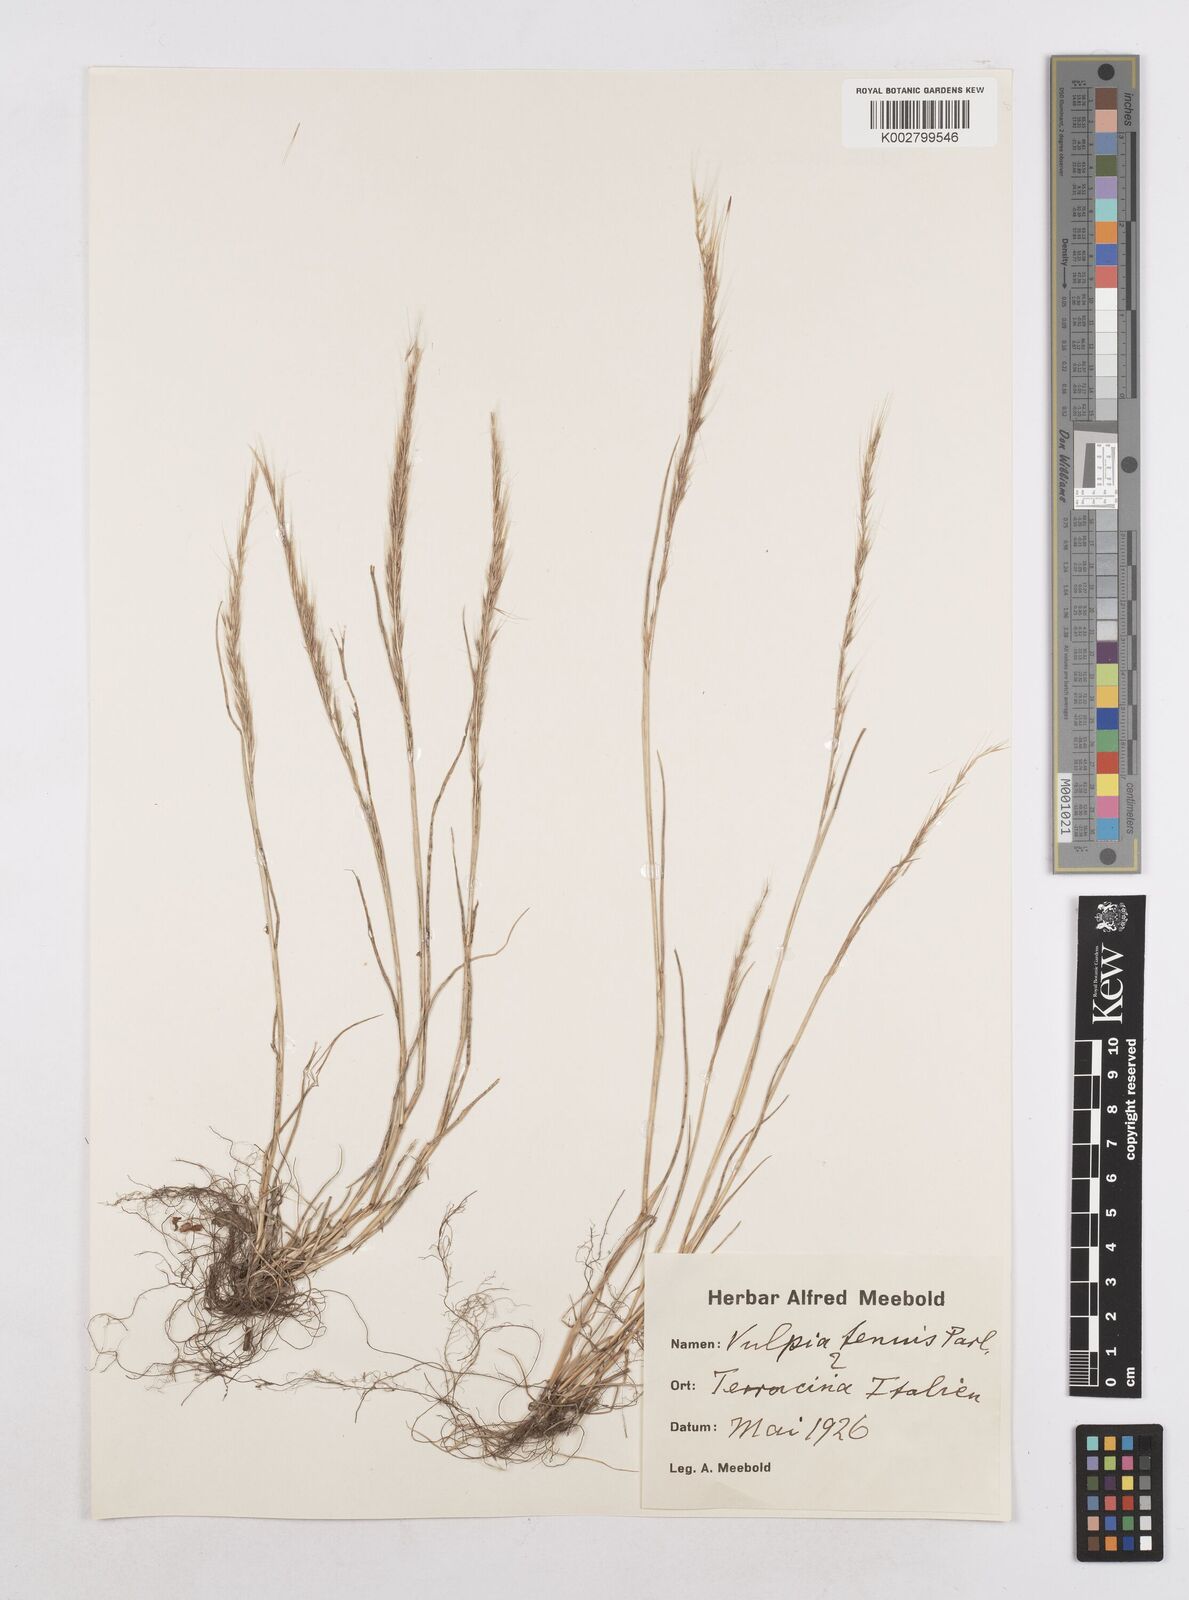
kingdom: Plantae
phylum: Tracheophyta
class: Liliopsida
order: Poales
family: Poaceae
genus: Festuca
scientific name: Festuca myuros
